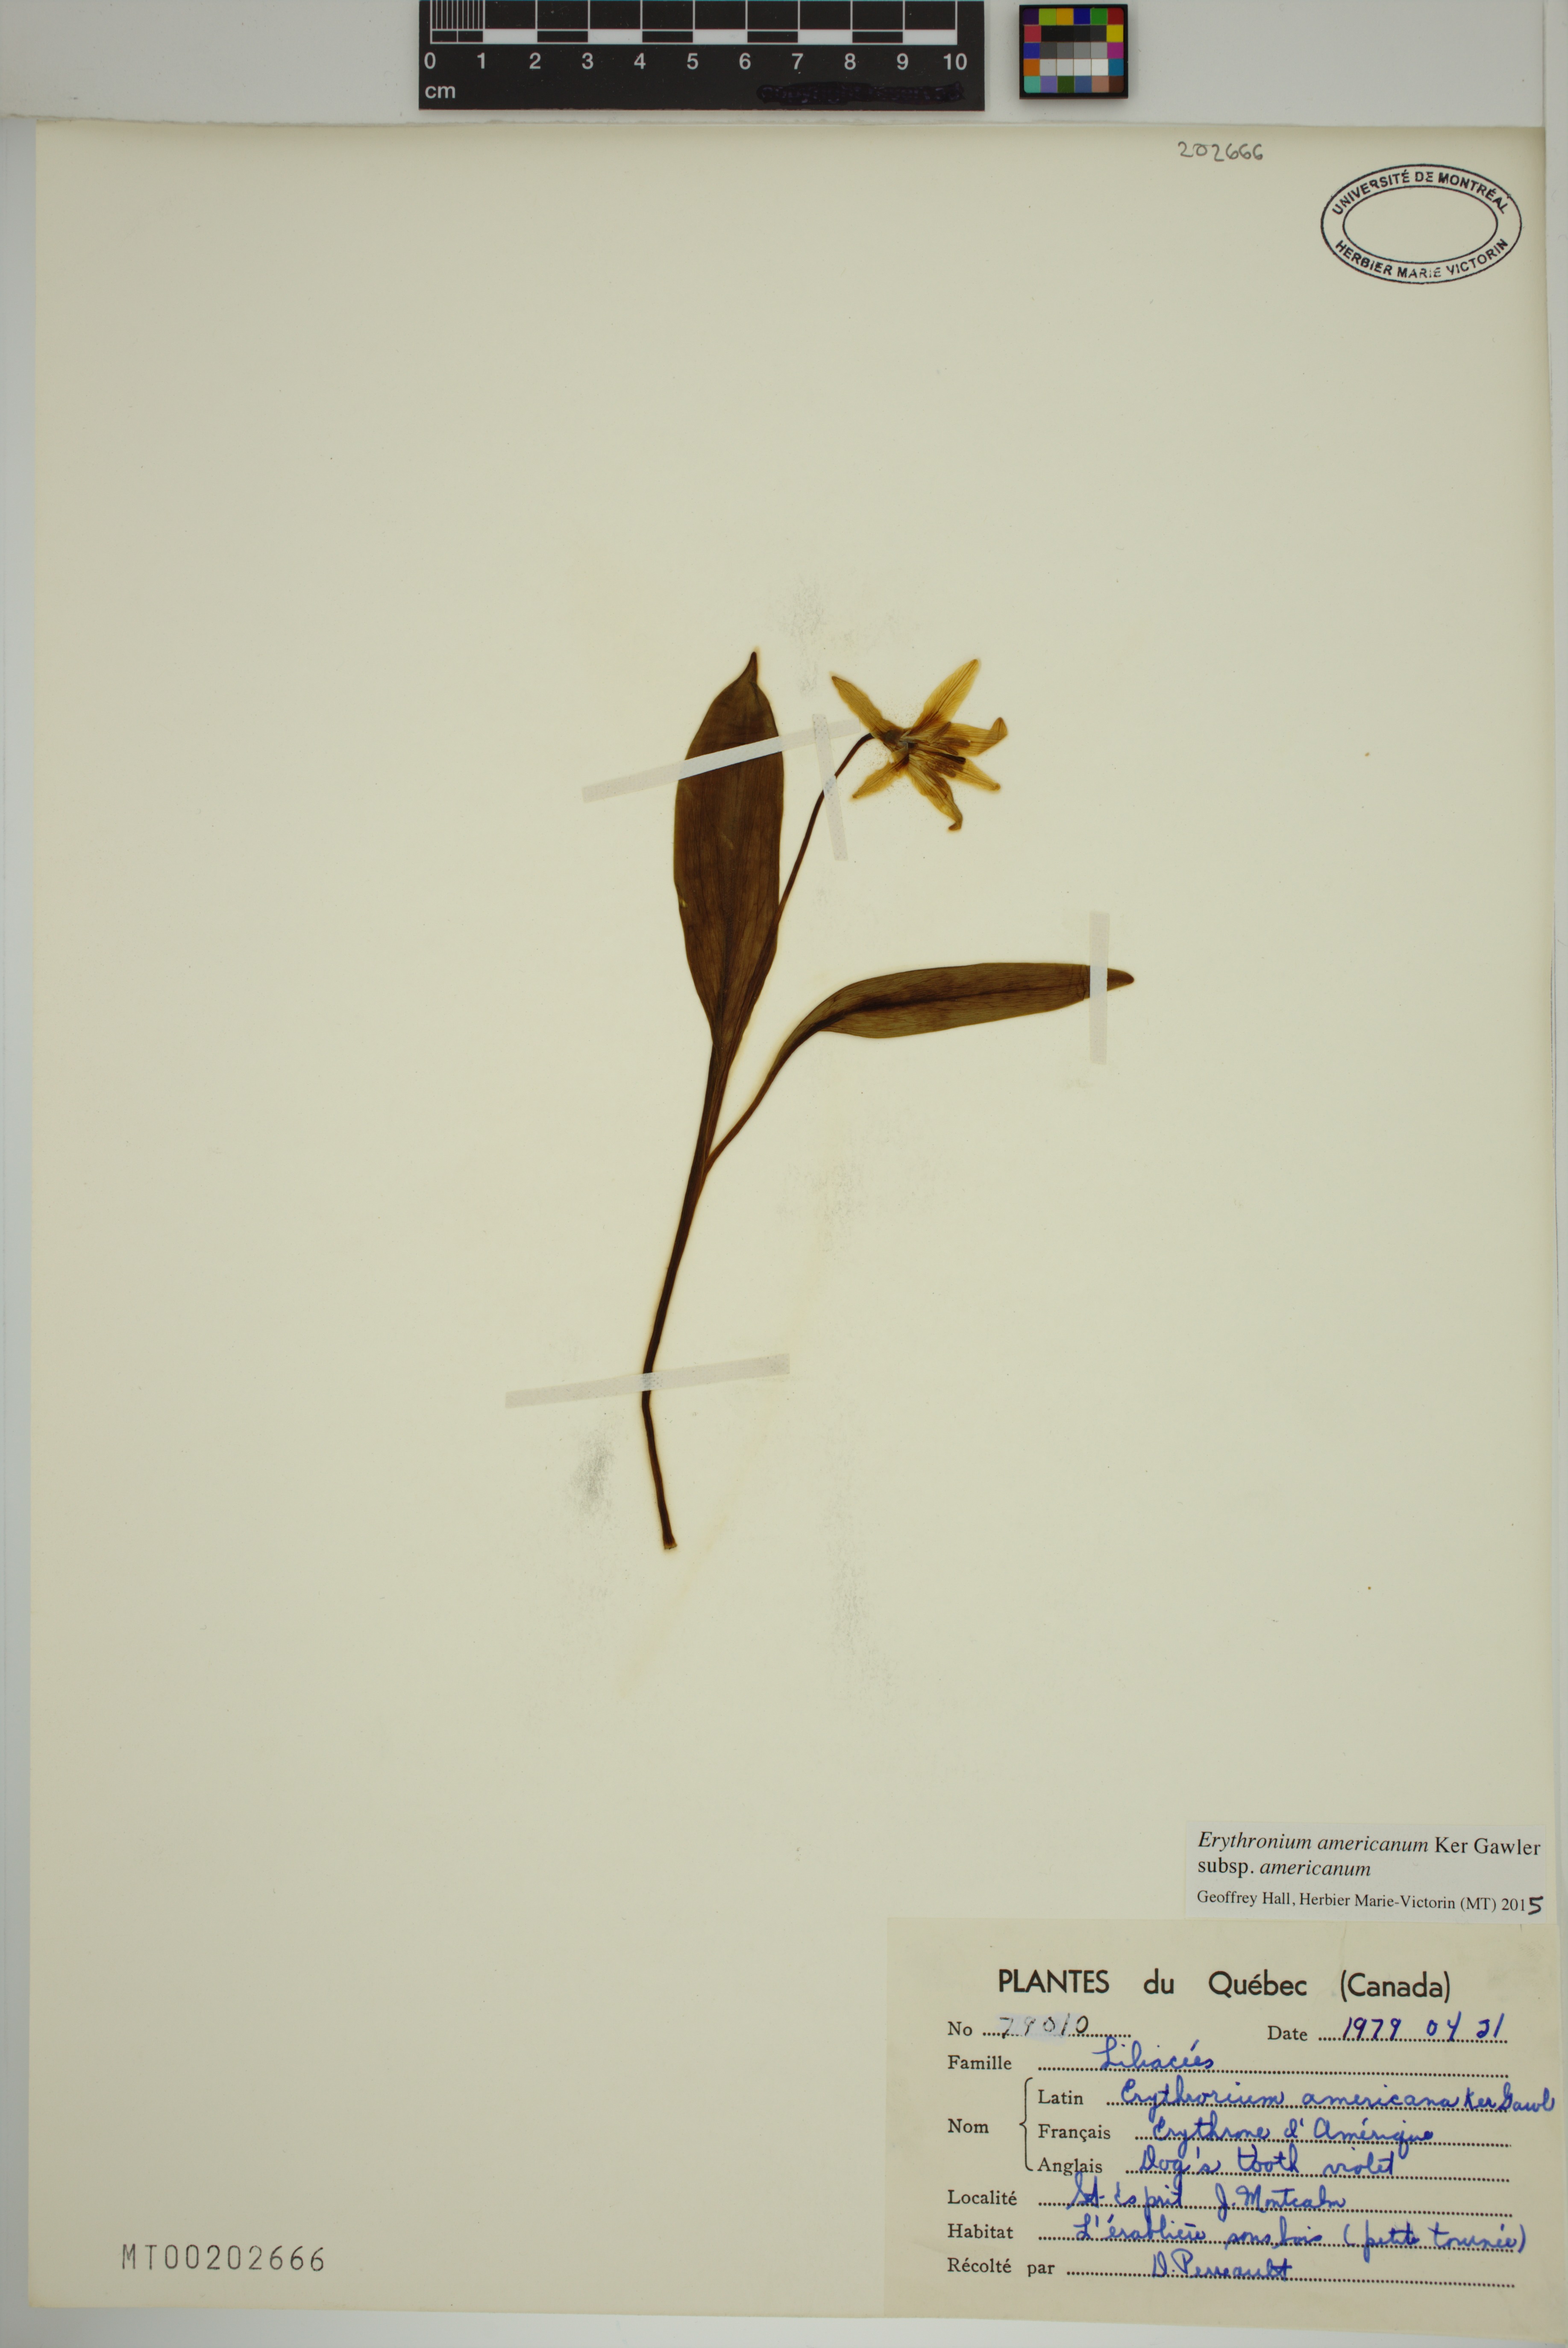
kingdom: Plantae
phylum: Tracheophyta
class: Liliopsida
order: Liliales
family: Liliaceae
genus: Erythronium
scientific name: Erythronium americanum
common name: Yellow adder's-tongue
